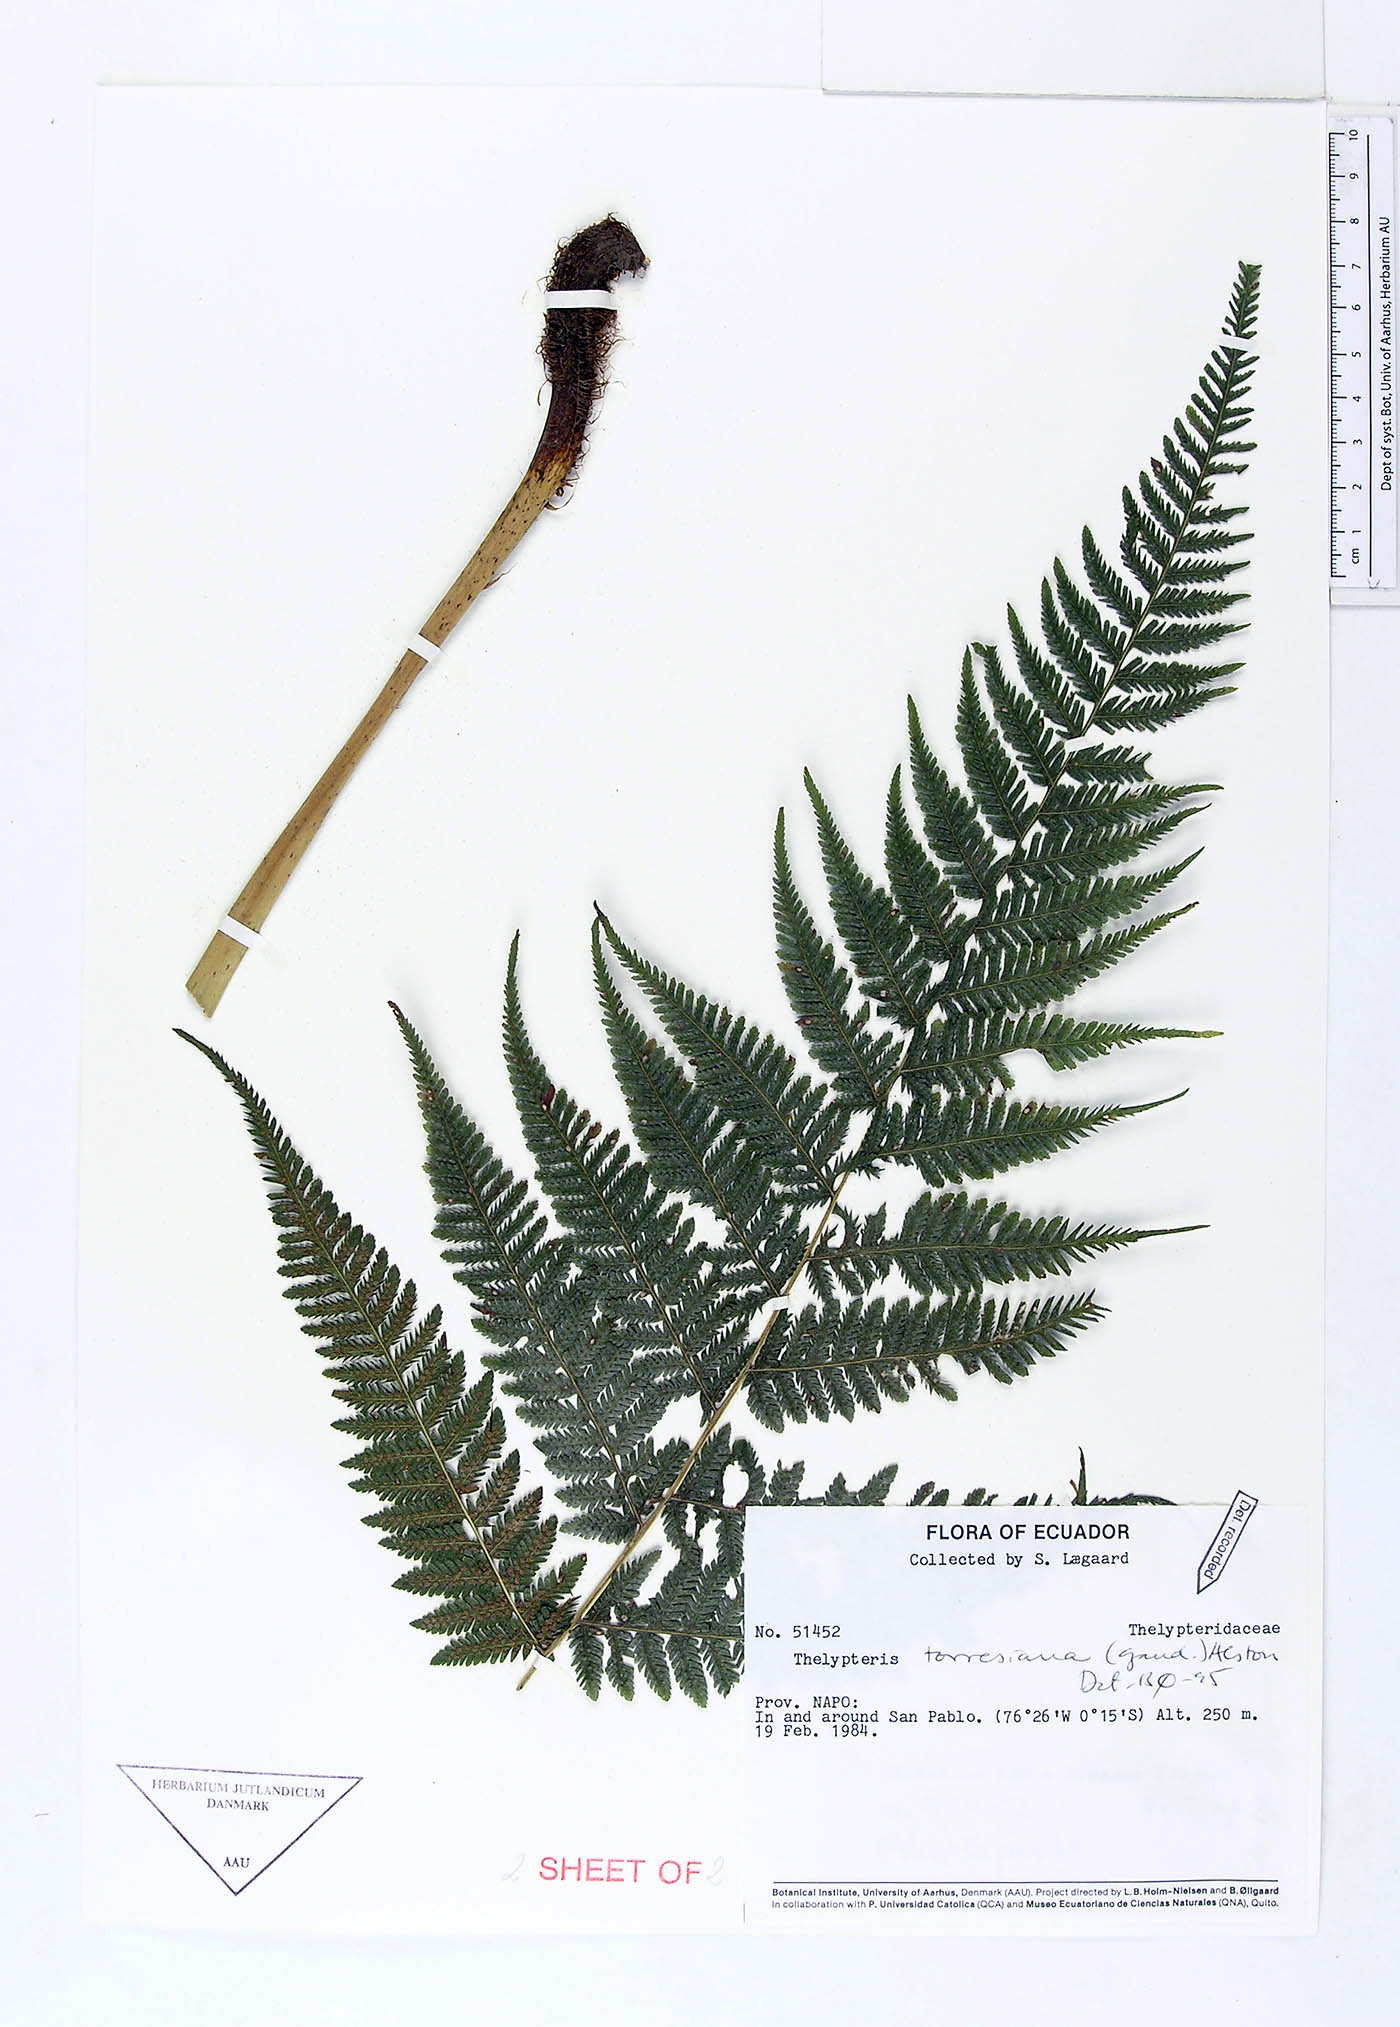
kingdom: Plantae
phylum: Tracheophyta
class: Polypodiopsida
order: Polypodiales
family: Thelypteridaceae
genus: Macrothelypteris
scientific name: Macrothelypteris torresiana
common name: Swordfern
